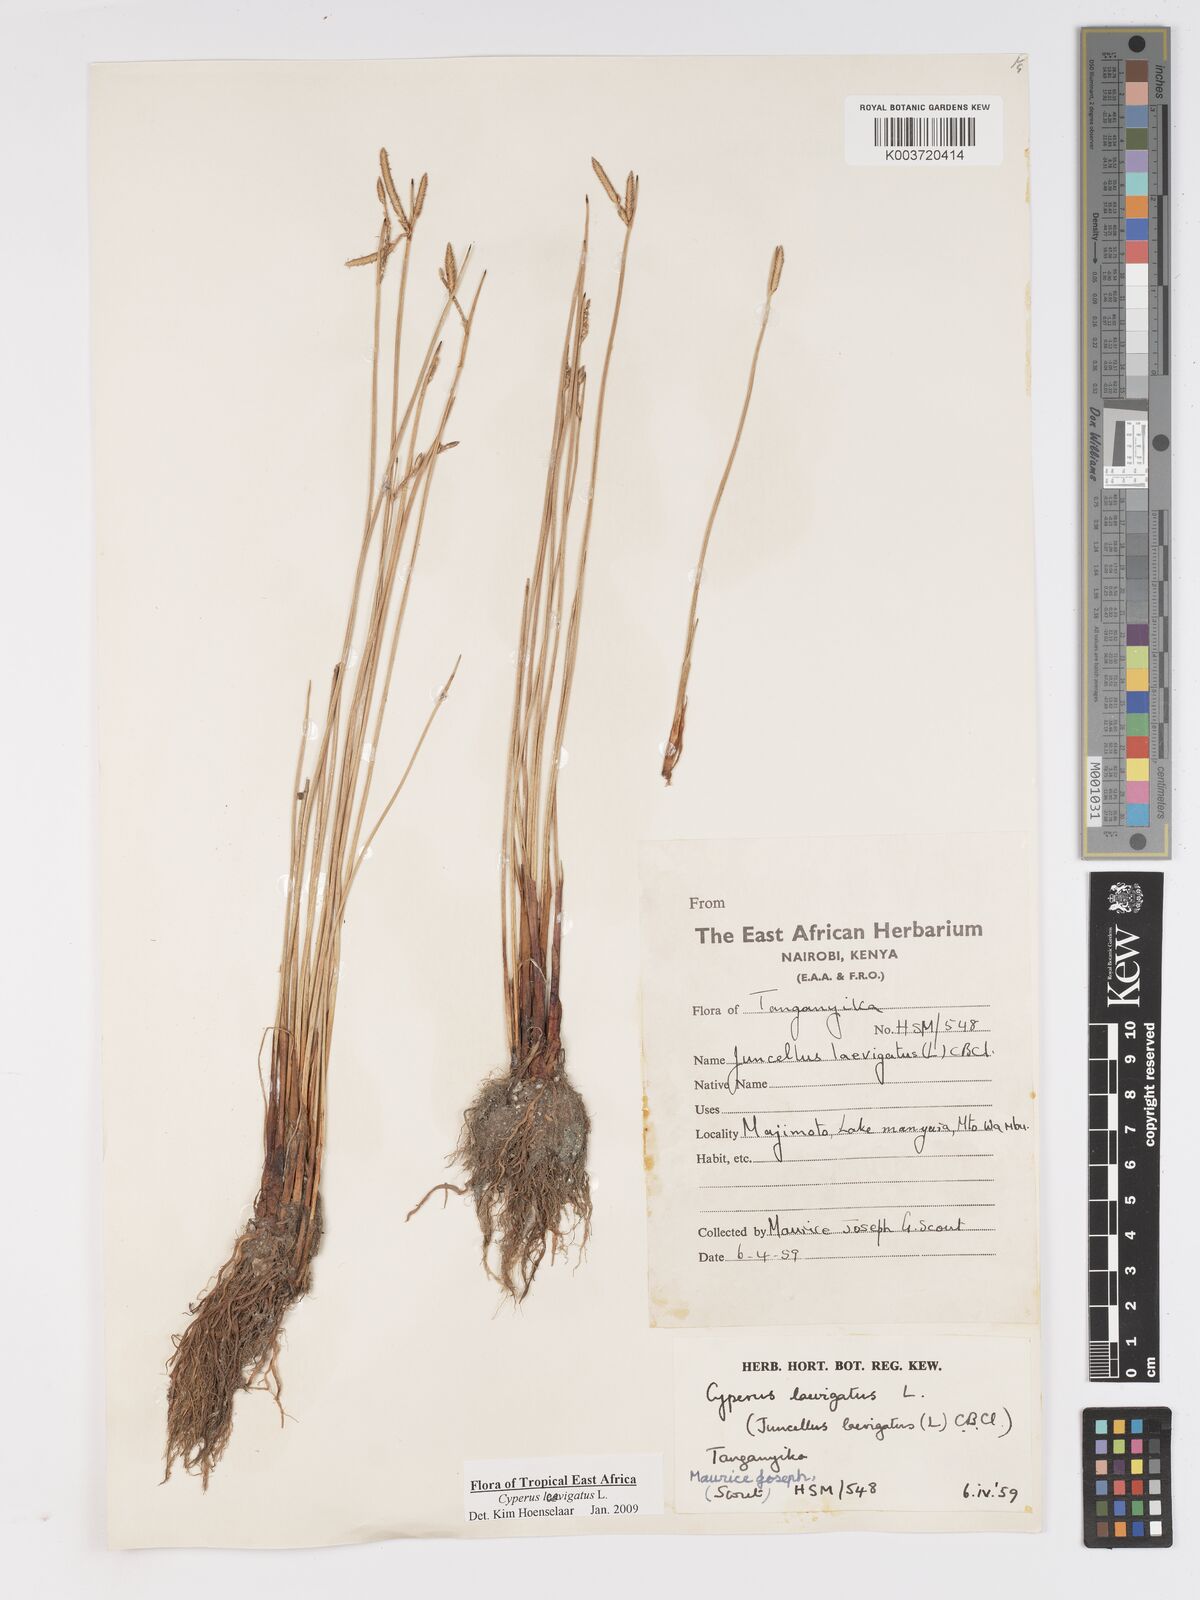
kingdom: Plantae
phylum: Tracheophyta
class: Liliopsida
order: Poales
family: Cyperaceae
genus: Cyperus
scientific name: Cyperus laevigatus
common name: Smooth flat sedge
